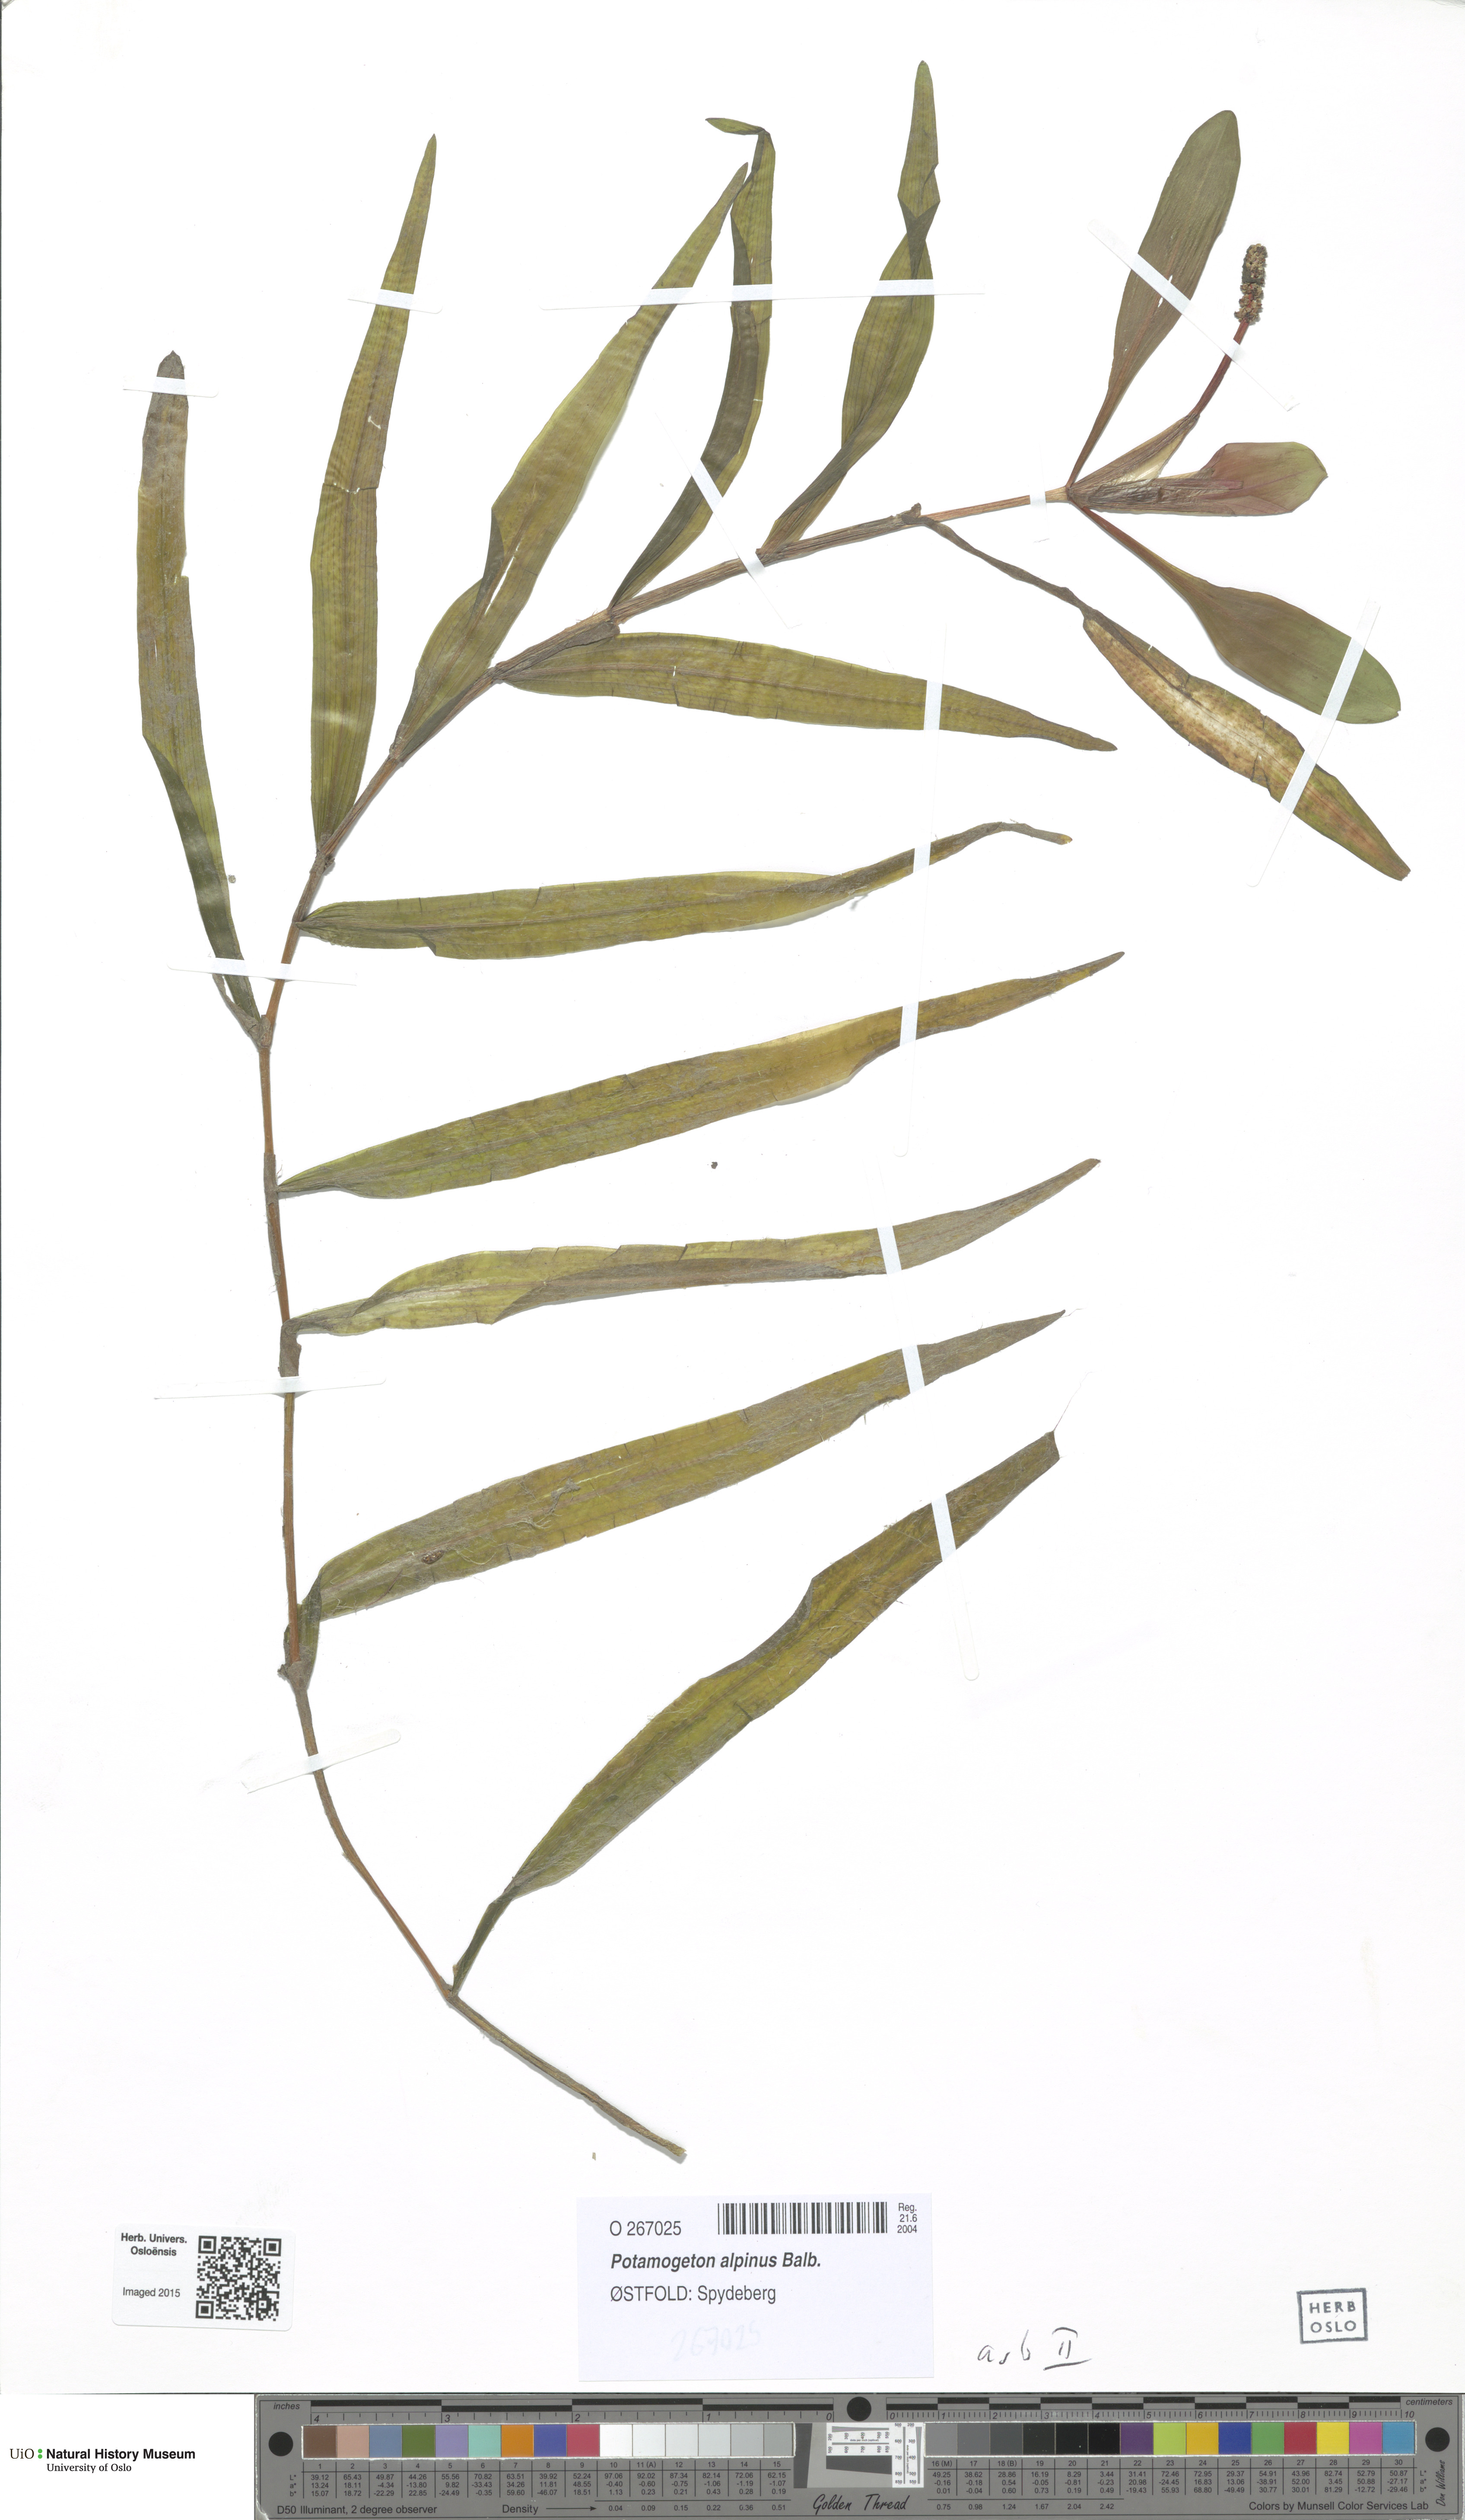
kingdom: Plantae
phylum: Tracheophyta
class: Liliopsida
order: Alismatales
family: Potamogetonaceae
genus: Potamogeton
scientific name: Potamogeton alpinus
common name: Red pondweed
